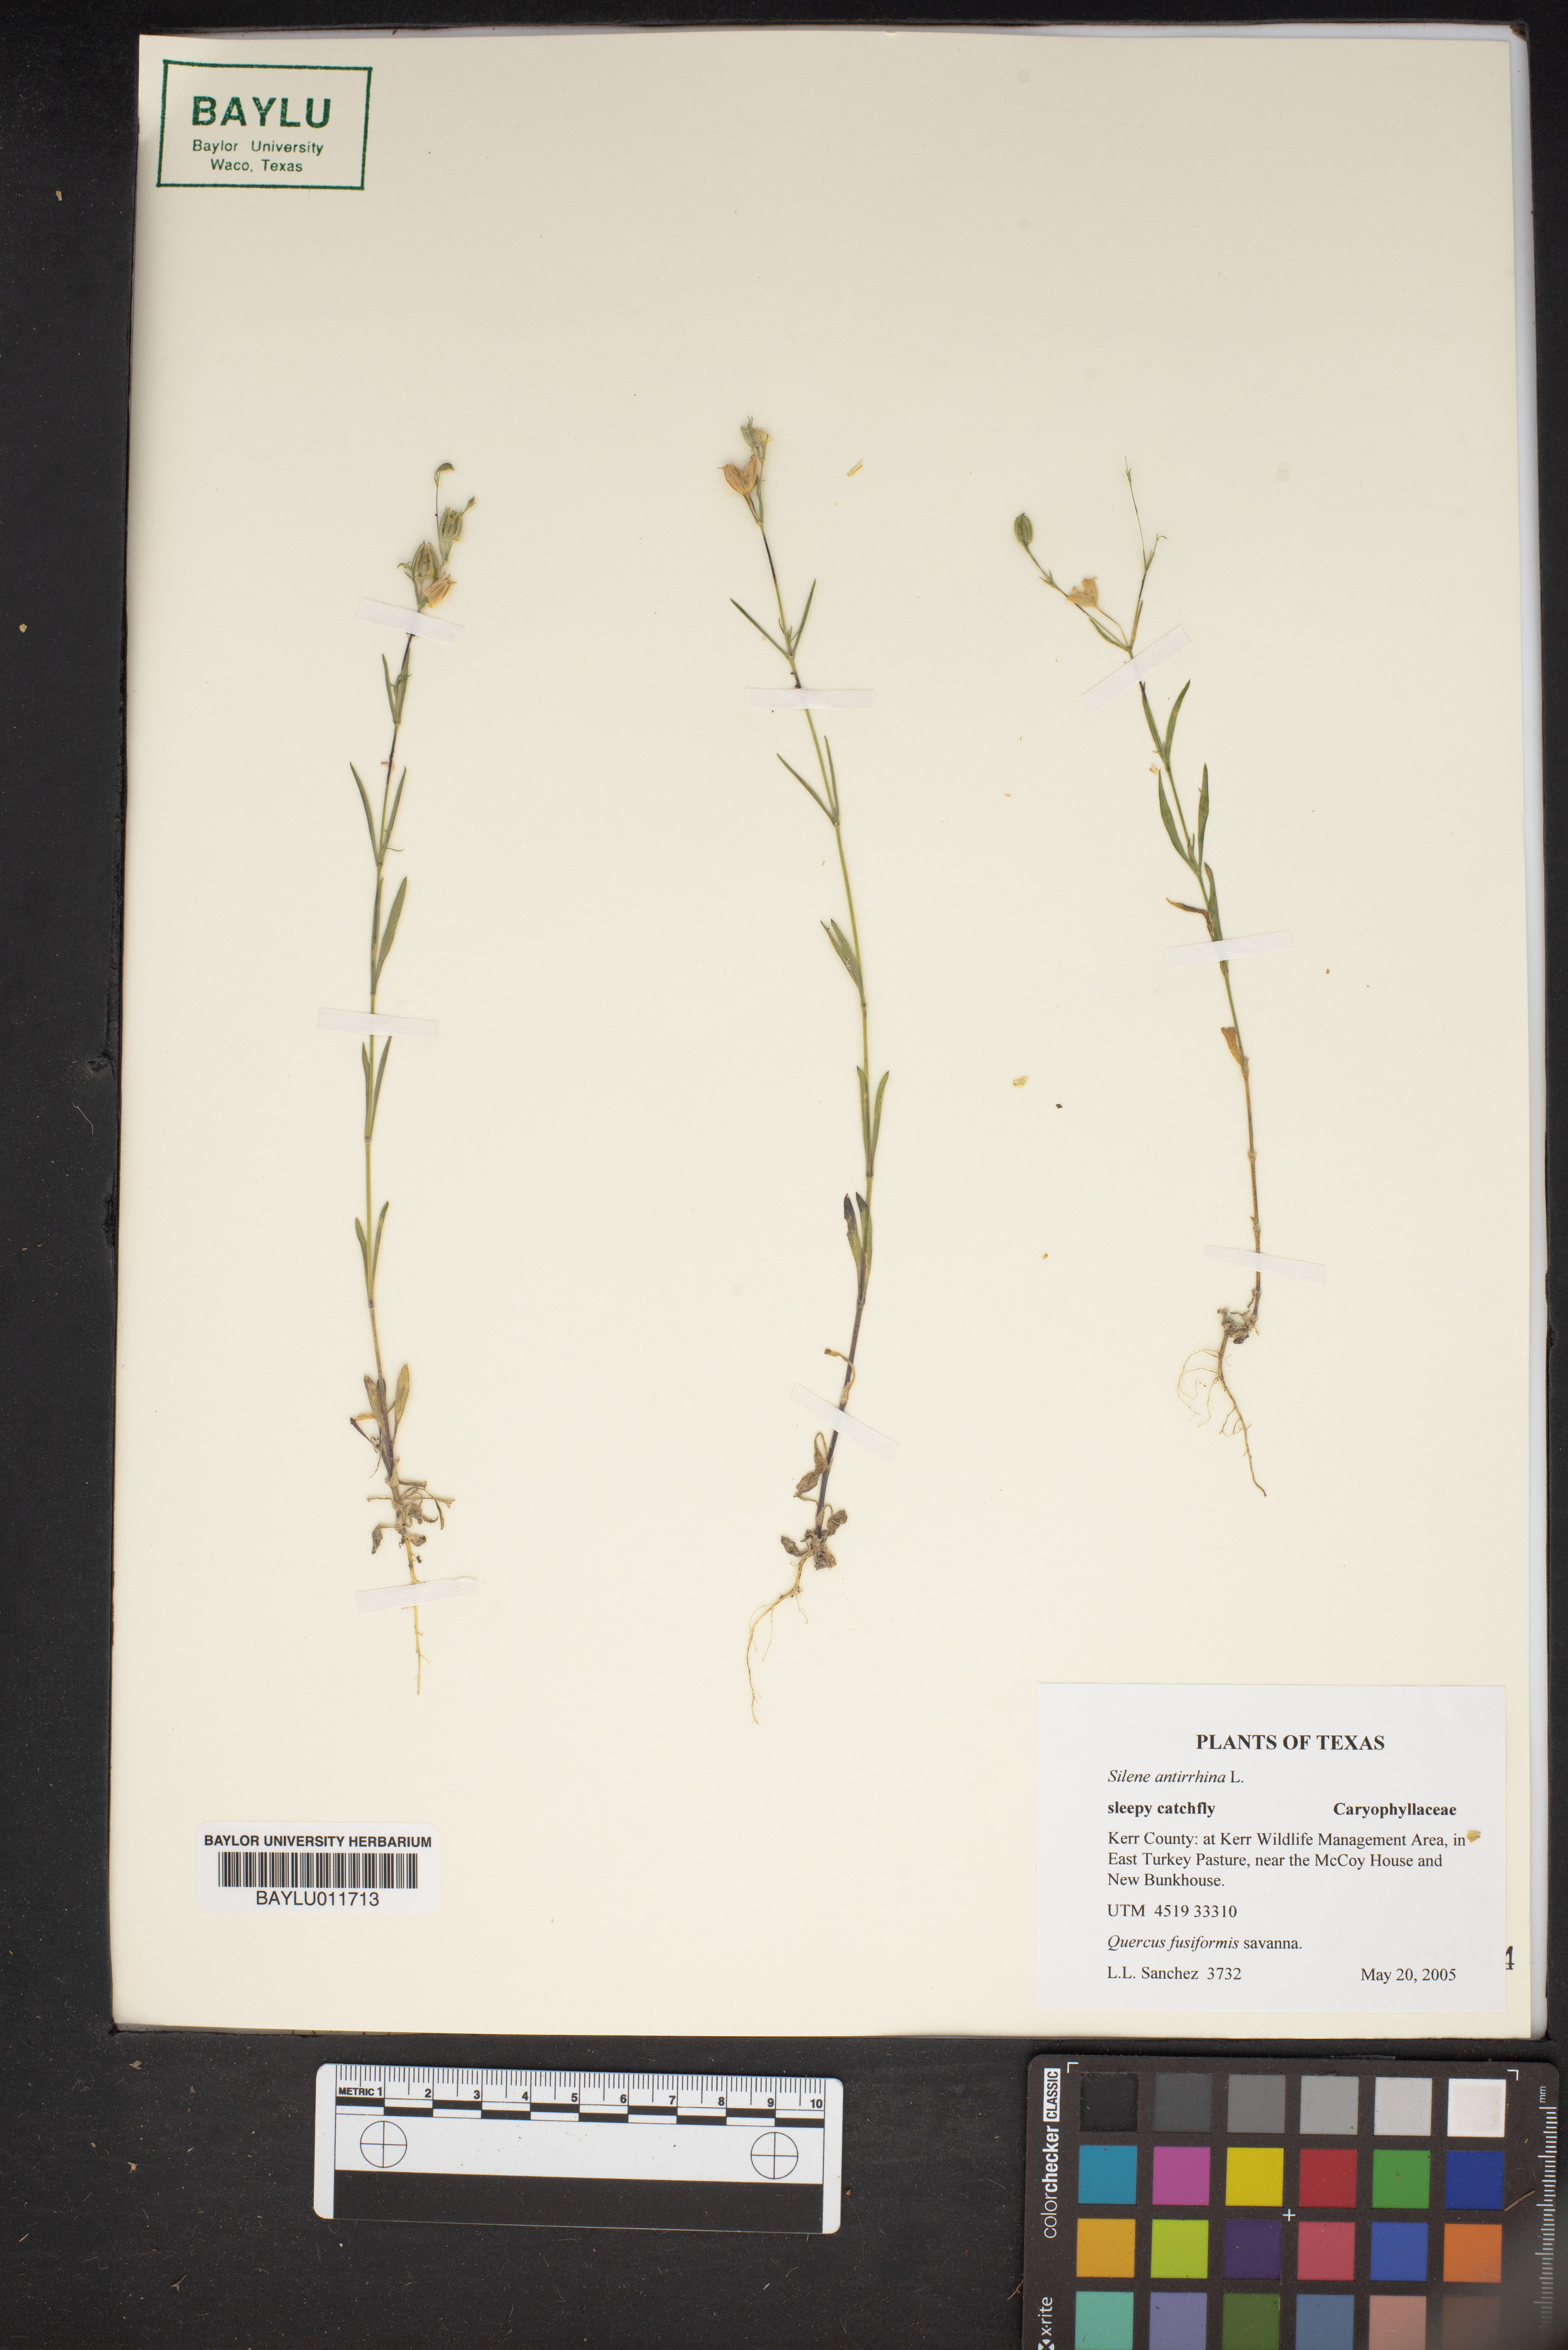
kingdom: Plantae
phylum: Tracheophyta
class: Magnoliopsida
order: Caryophyllales
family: Caryophyllaceae
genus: Silene
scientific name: Silene antirrhina
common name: Sleepy catchfly
